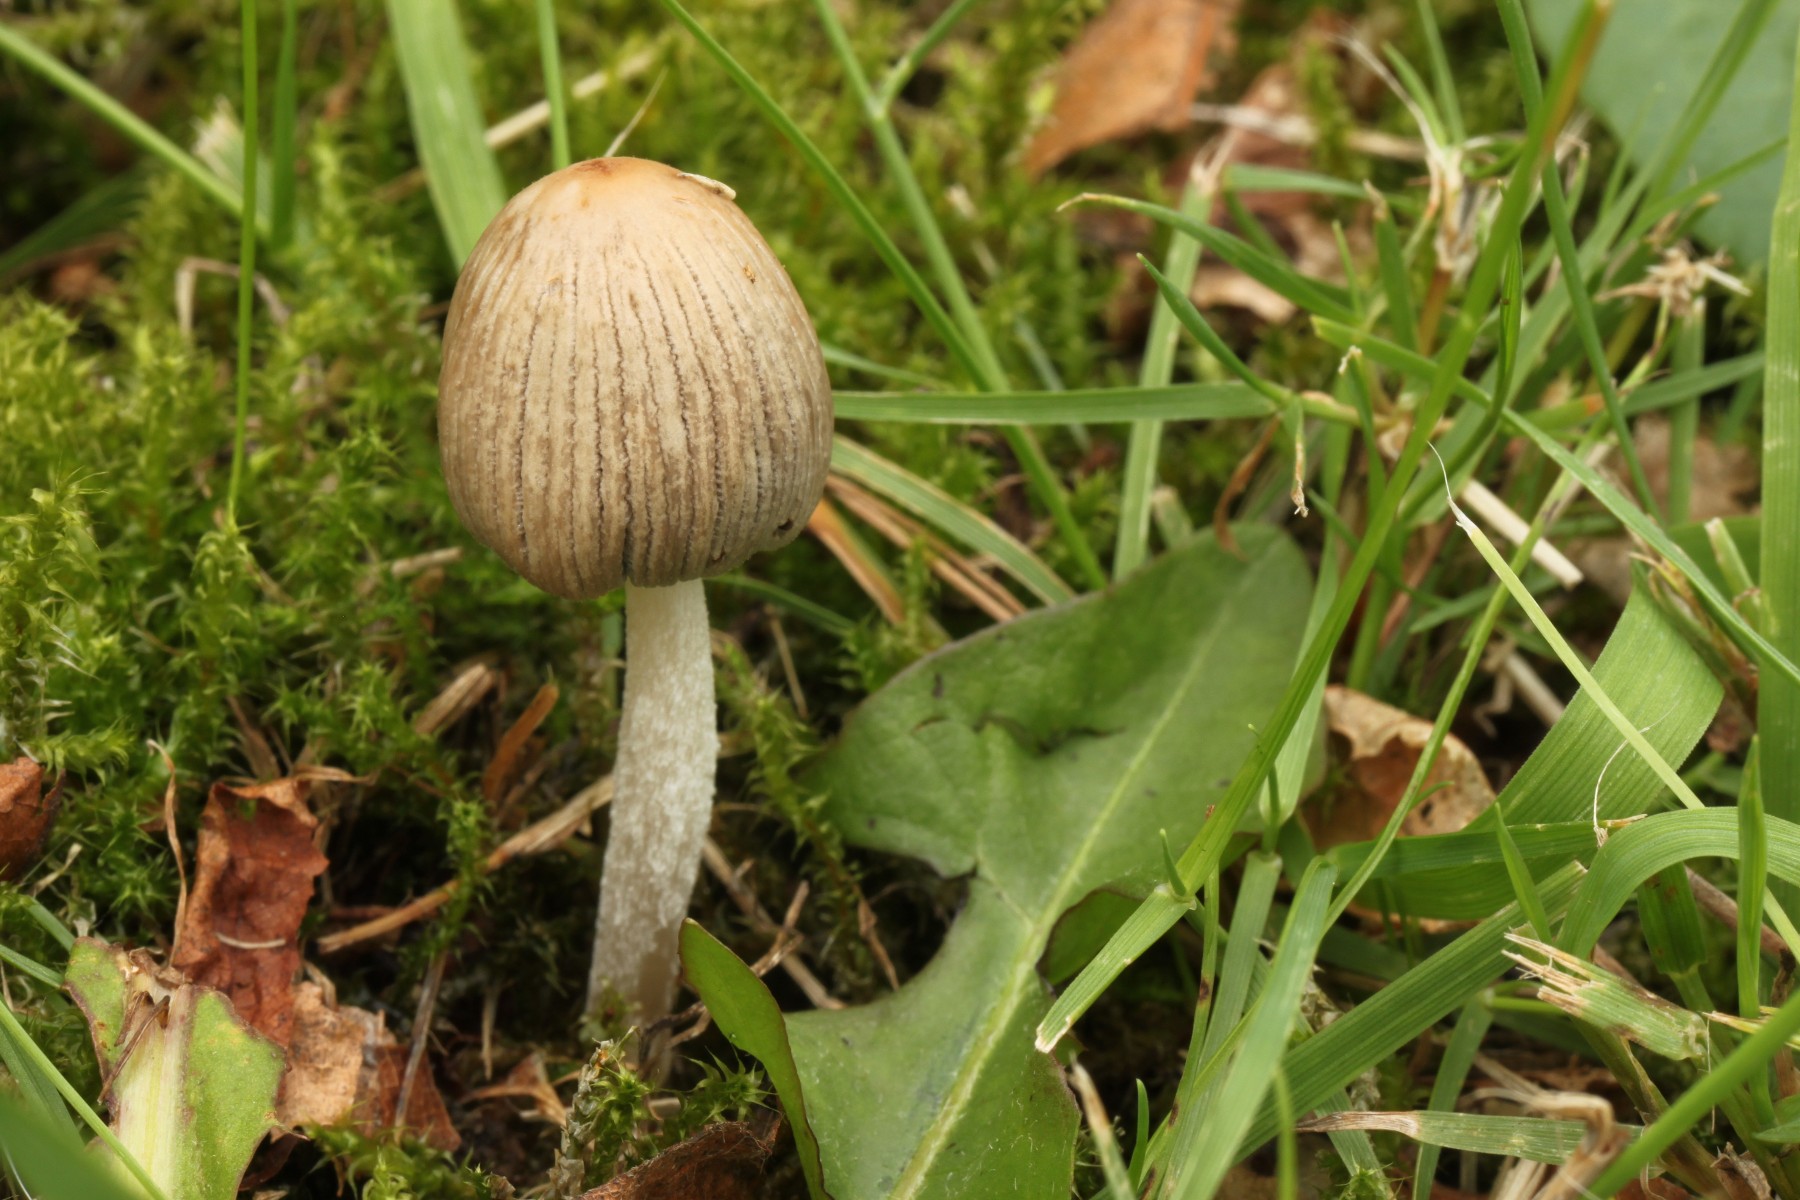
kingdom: Fungi
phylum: Basidiomycota
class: Agaricomycetes
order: Agaricales
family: Psathyrellaceae
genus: Tulosesus
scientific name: Tulosesus subimpatiens
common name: tøvende blækhat
